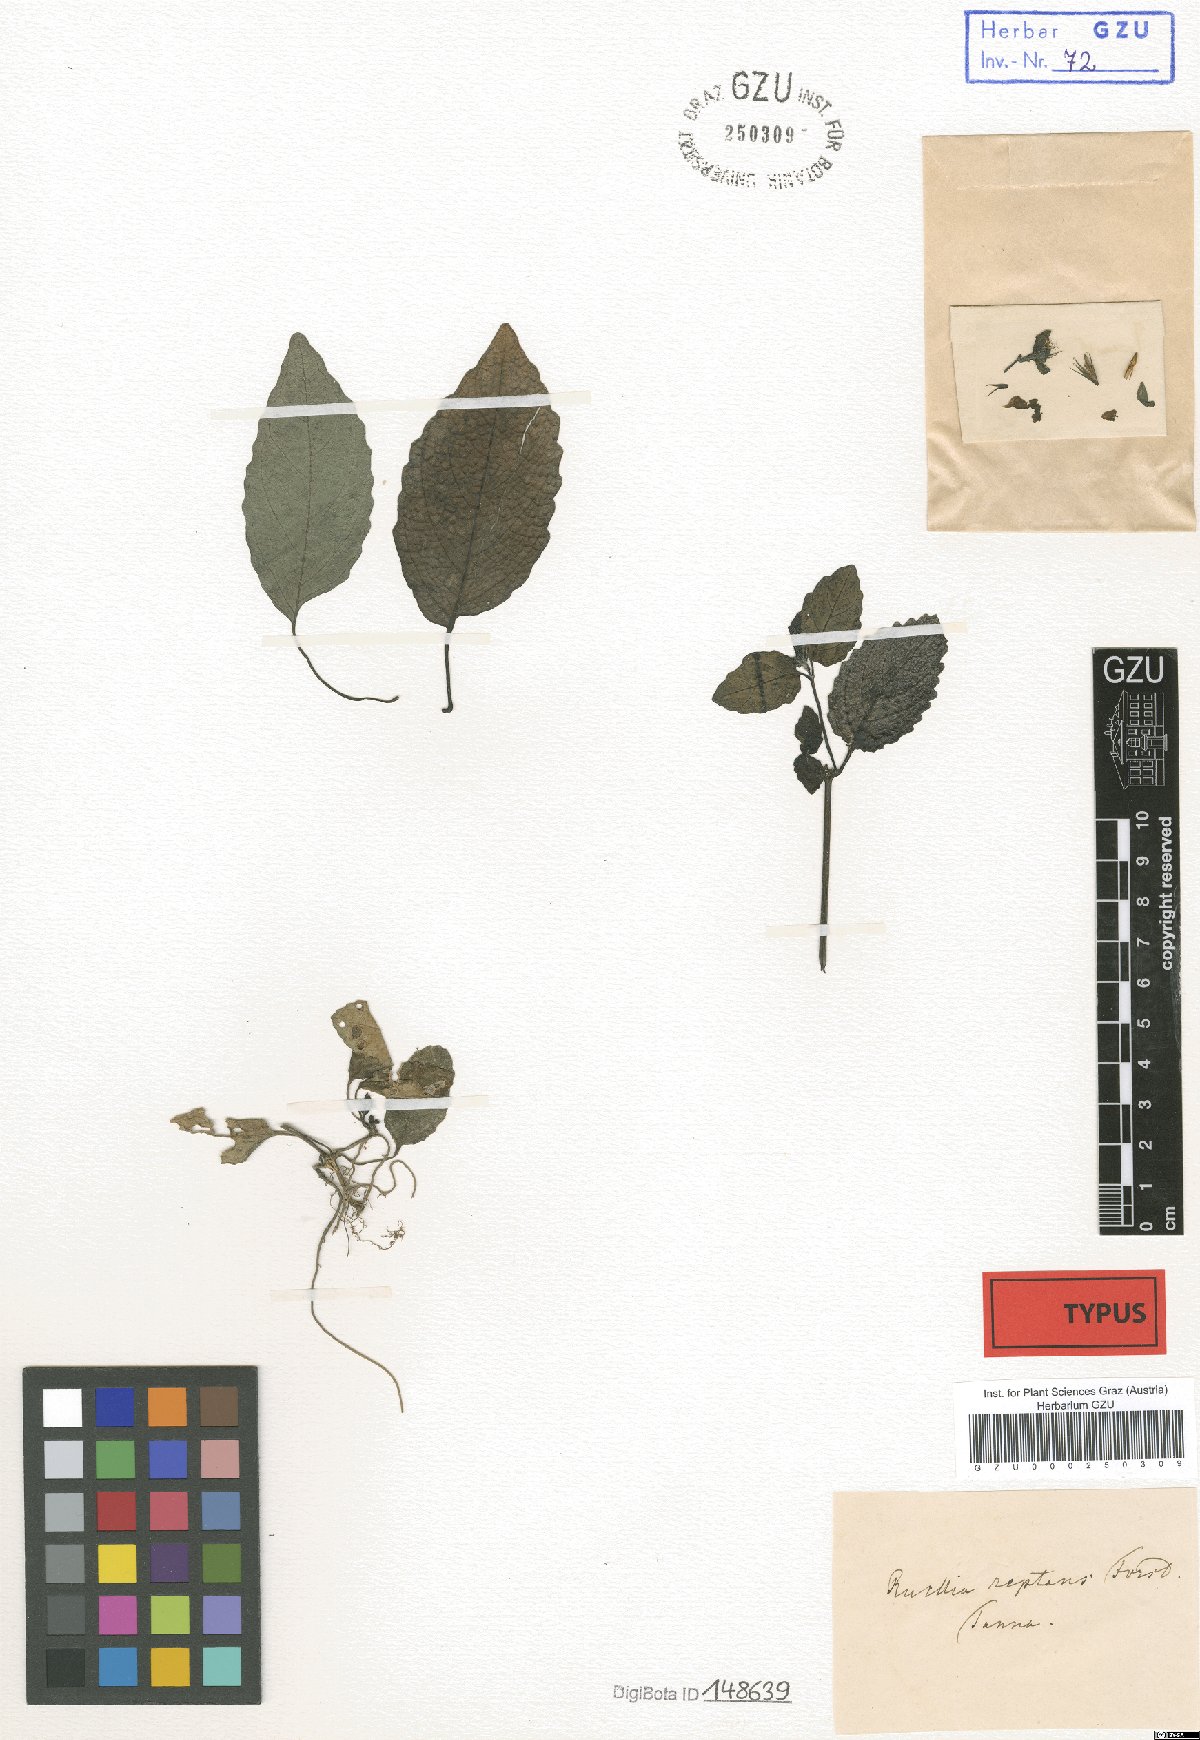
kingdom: Plantae
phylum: Tracheophyta
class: Magnoliopsida
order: Lamiales
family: Acanthaceae
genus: Strobilanthes
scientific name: Strobilanthes reptans
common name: Acanthaceae
